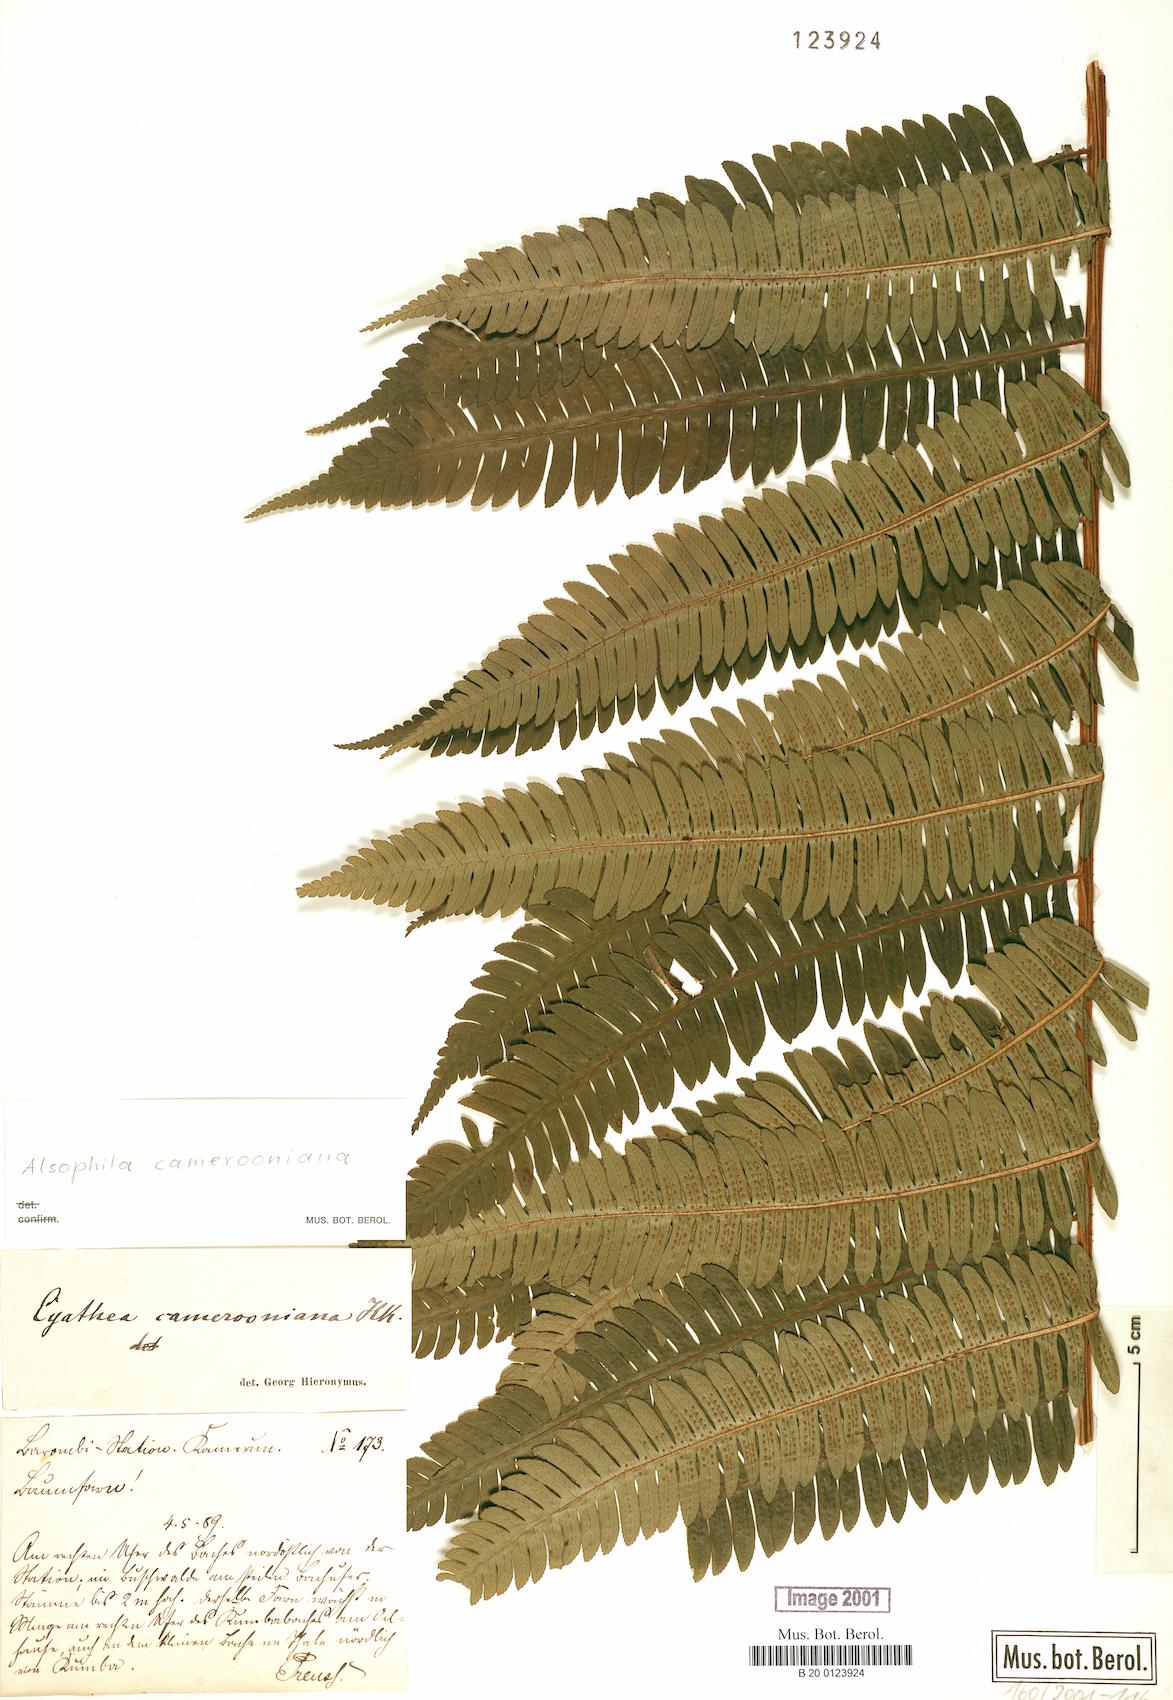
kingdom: Plantae
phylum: Tracheophyta
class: Polypodiopsida
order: Cyatheales
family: Cyatheaceae
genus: Alsophila
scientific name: Alsophila camerooniana
